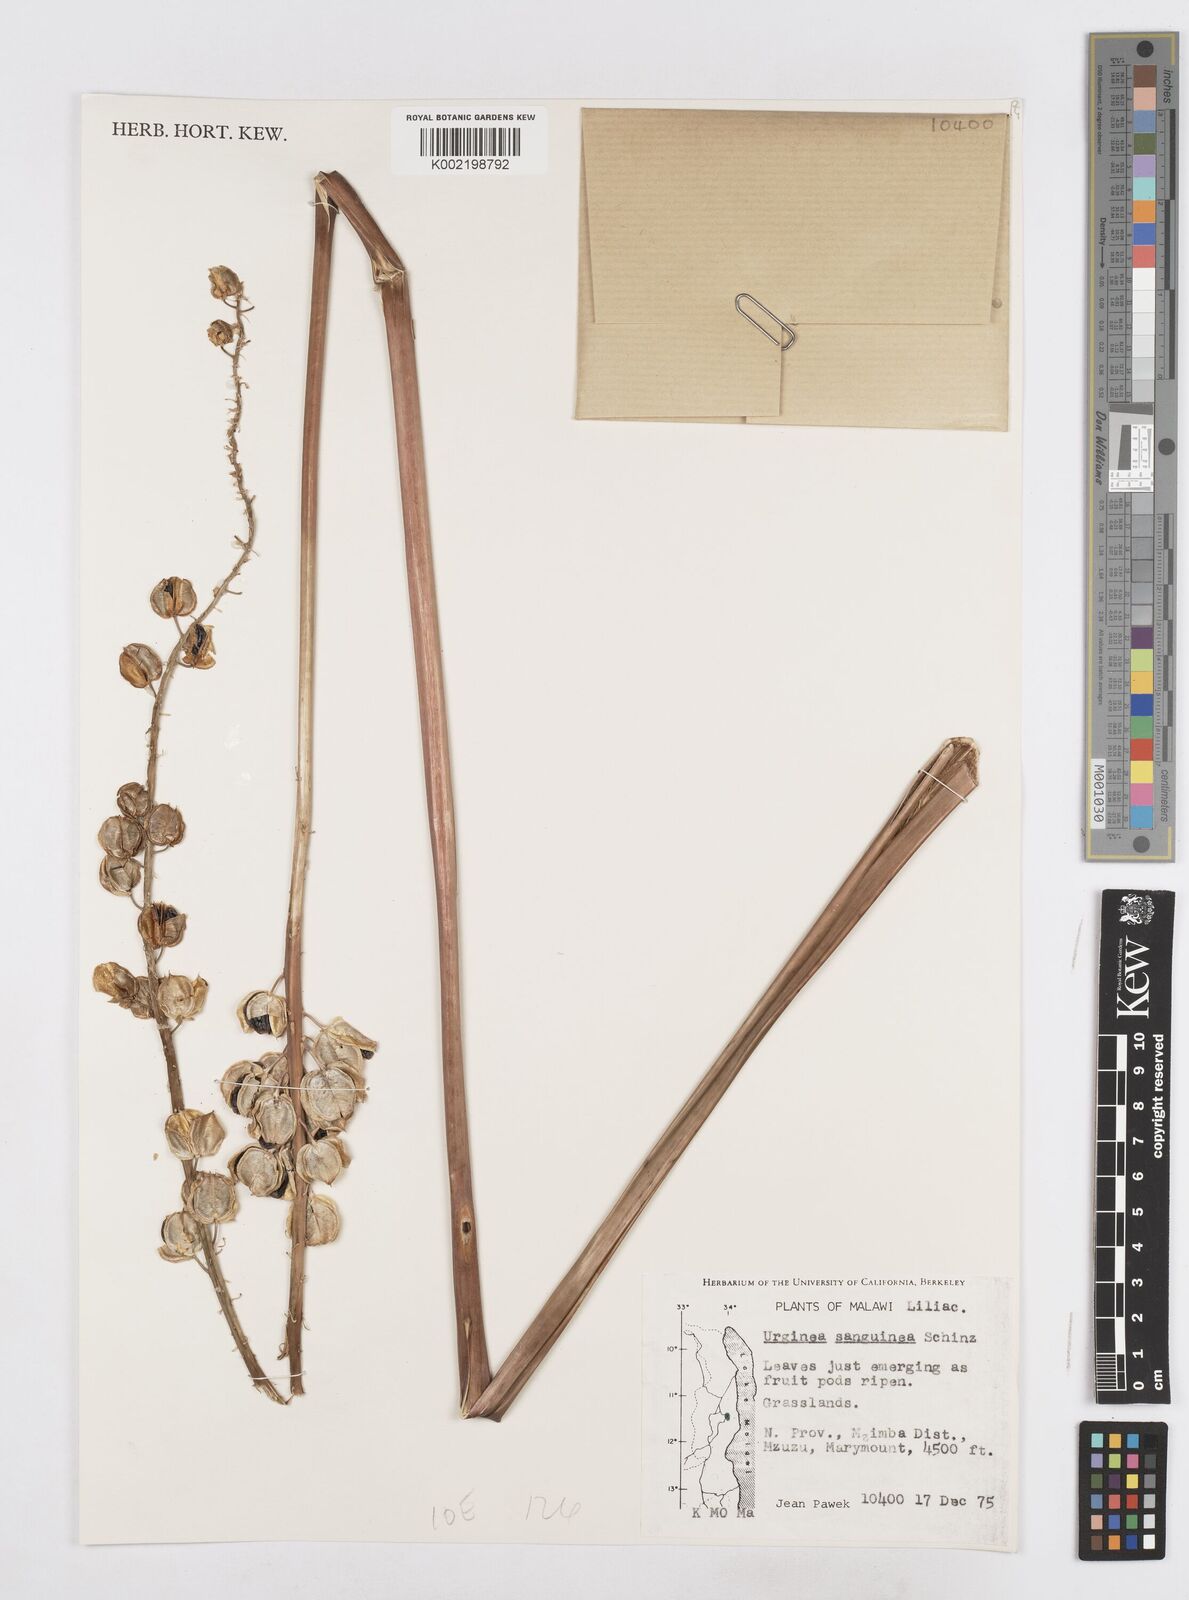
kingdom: Plantae
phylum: Tracheophyta
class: Liliopsida
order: Asparagales
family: Asparagaceae
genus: Drimia
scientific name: Drimia sanguinea
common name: Transvaal slangkop
